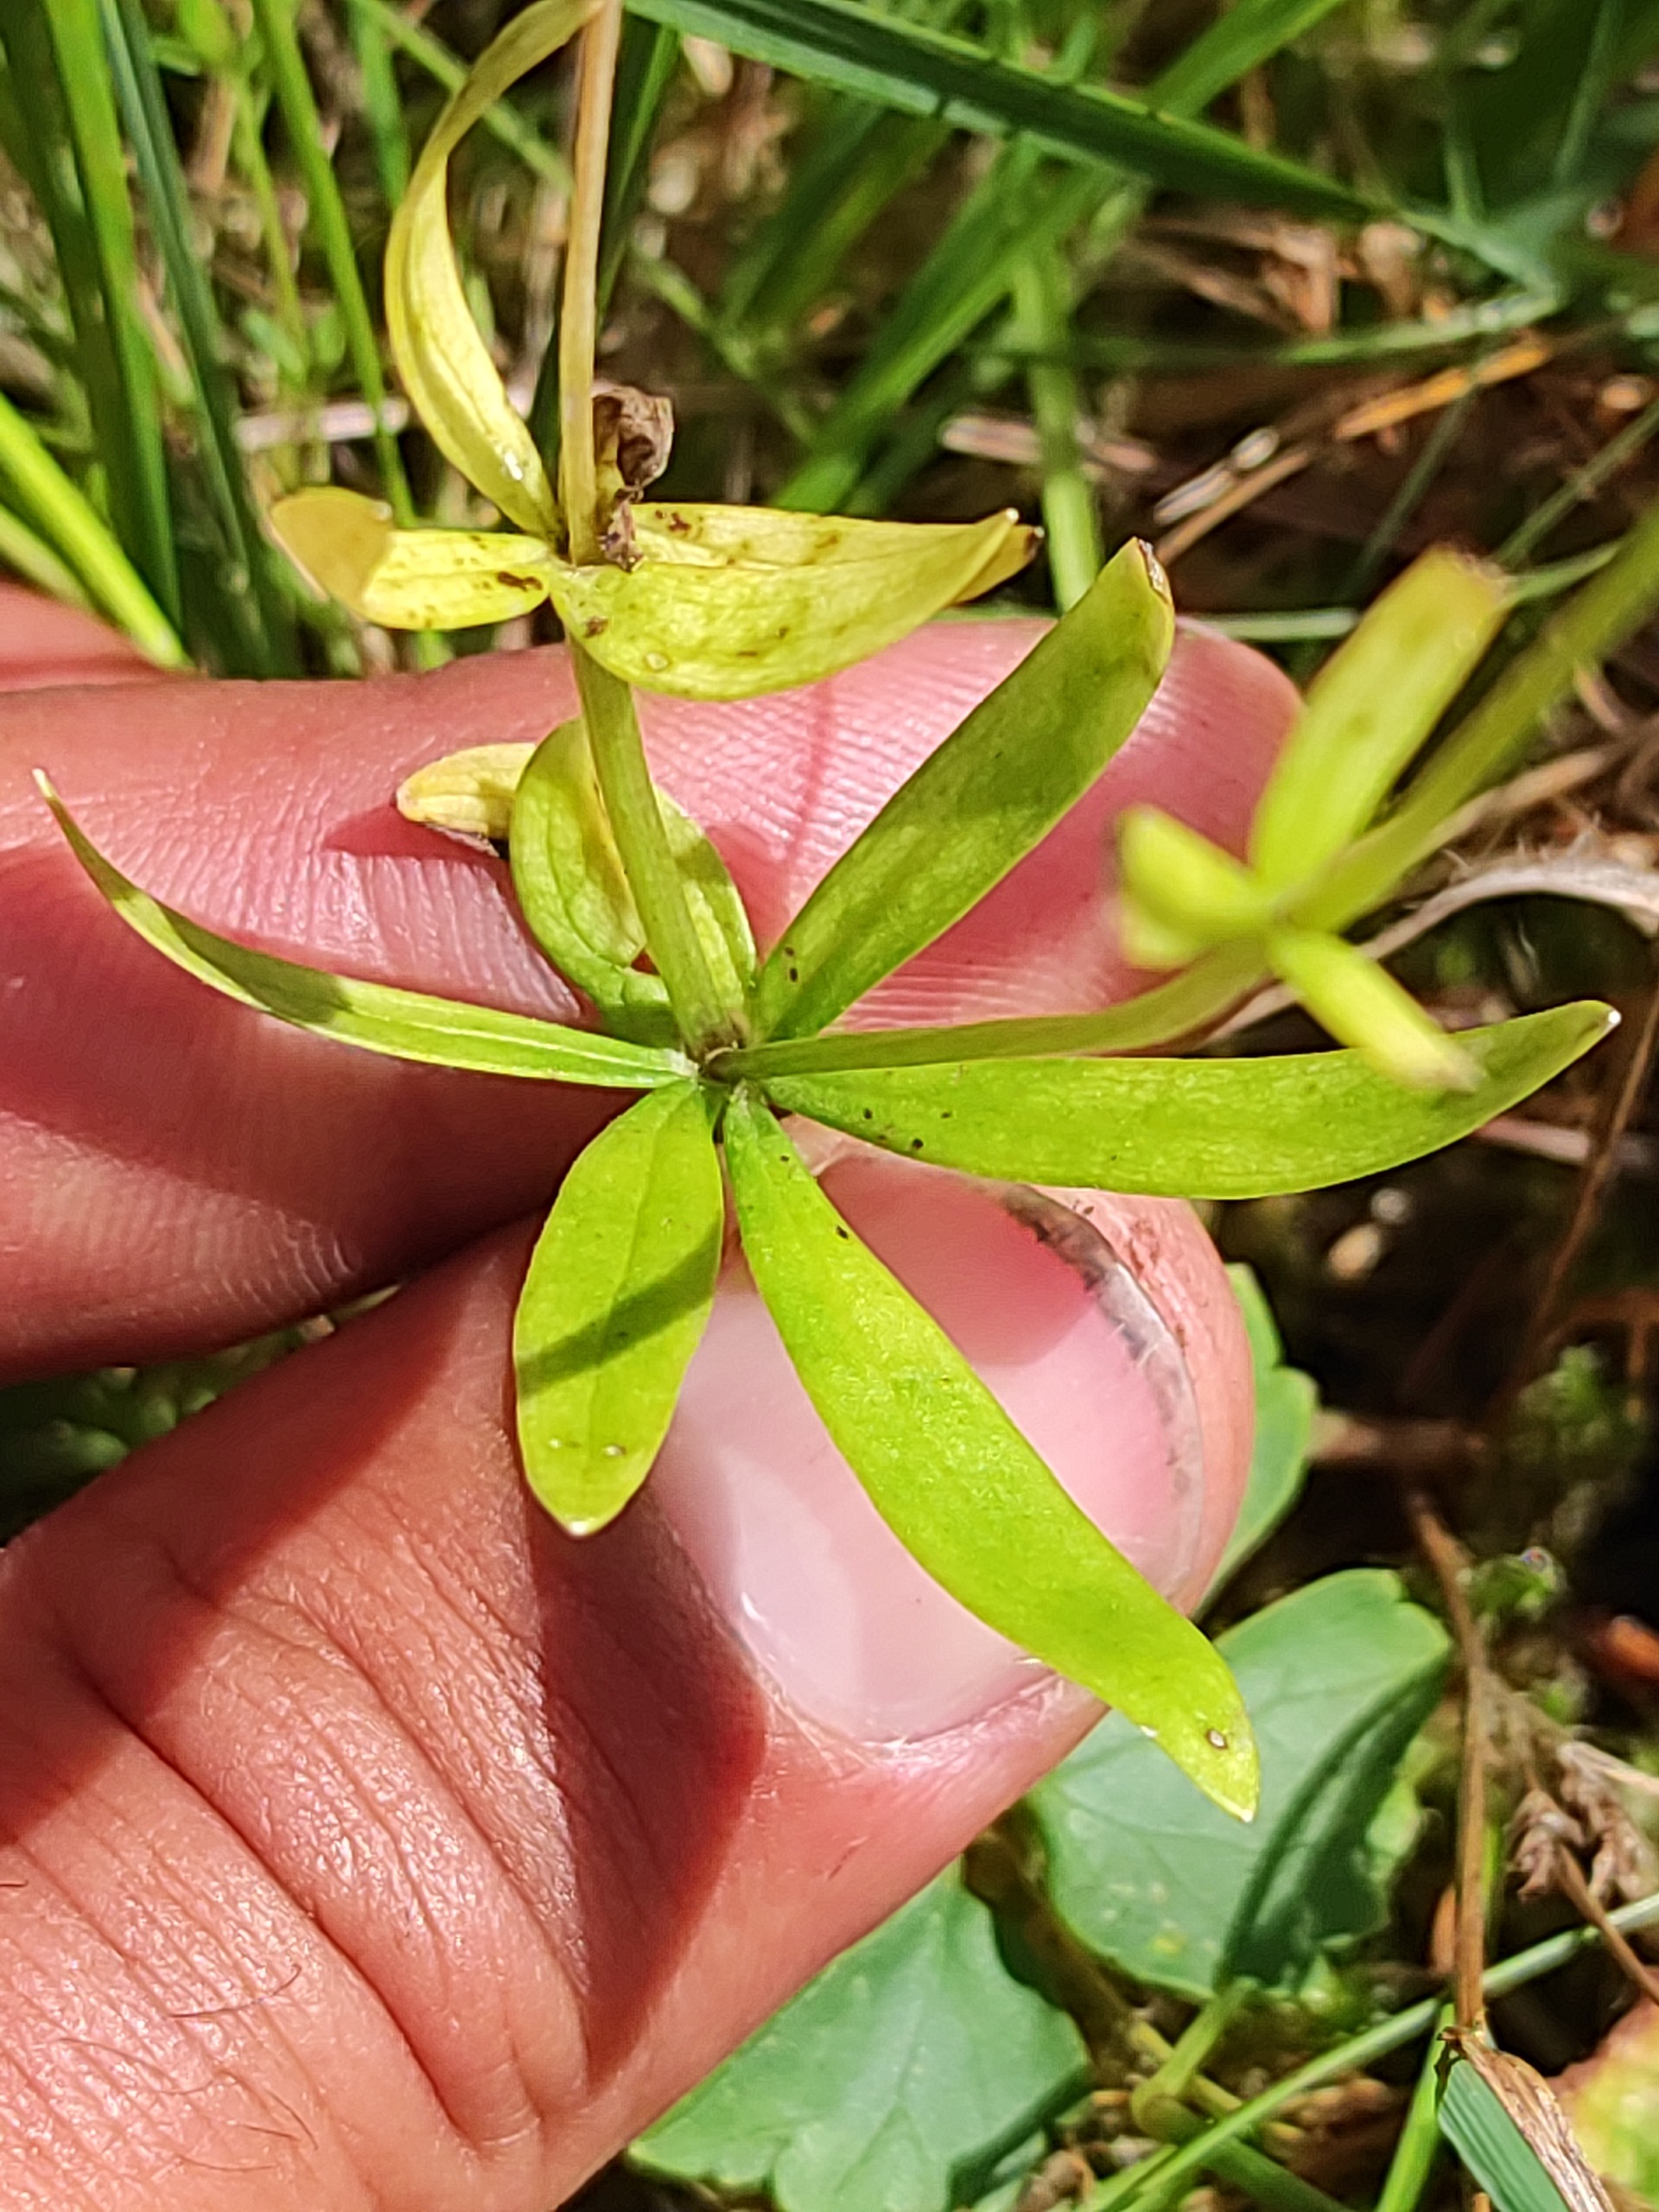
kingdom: Plantae
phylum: Tracheophyta
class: Magnoliopsida
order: Ranunculales
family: Ranunculaceae
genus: Ranunculus
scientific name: Ranunculus auricomus
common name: Nyrebladet ranunkel
